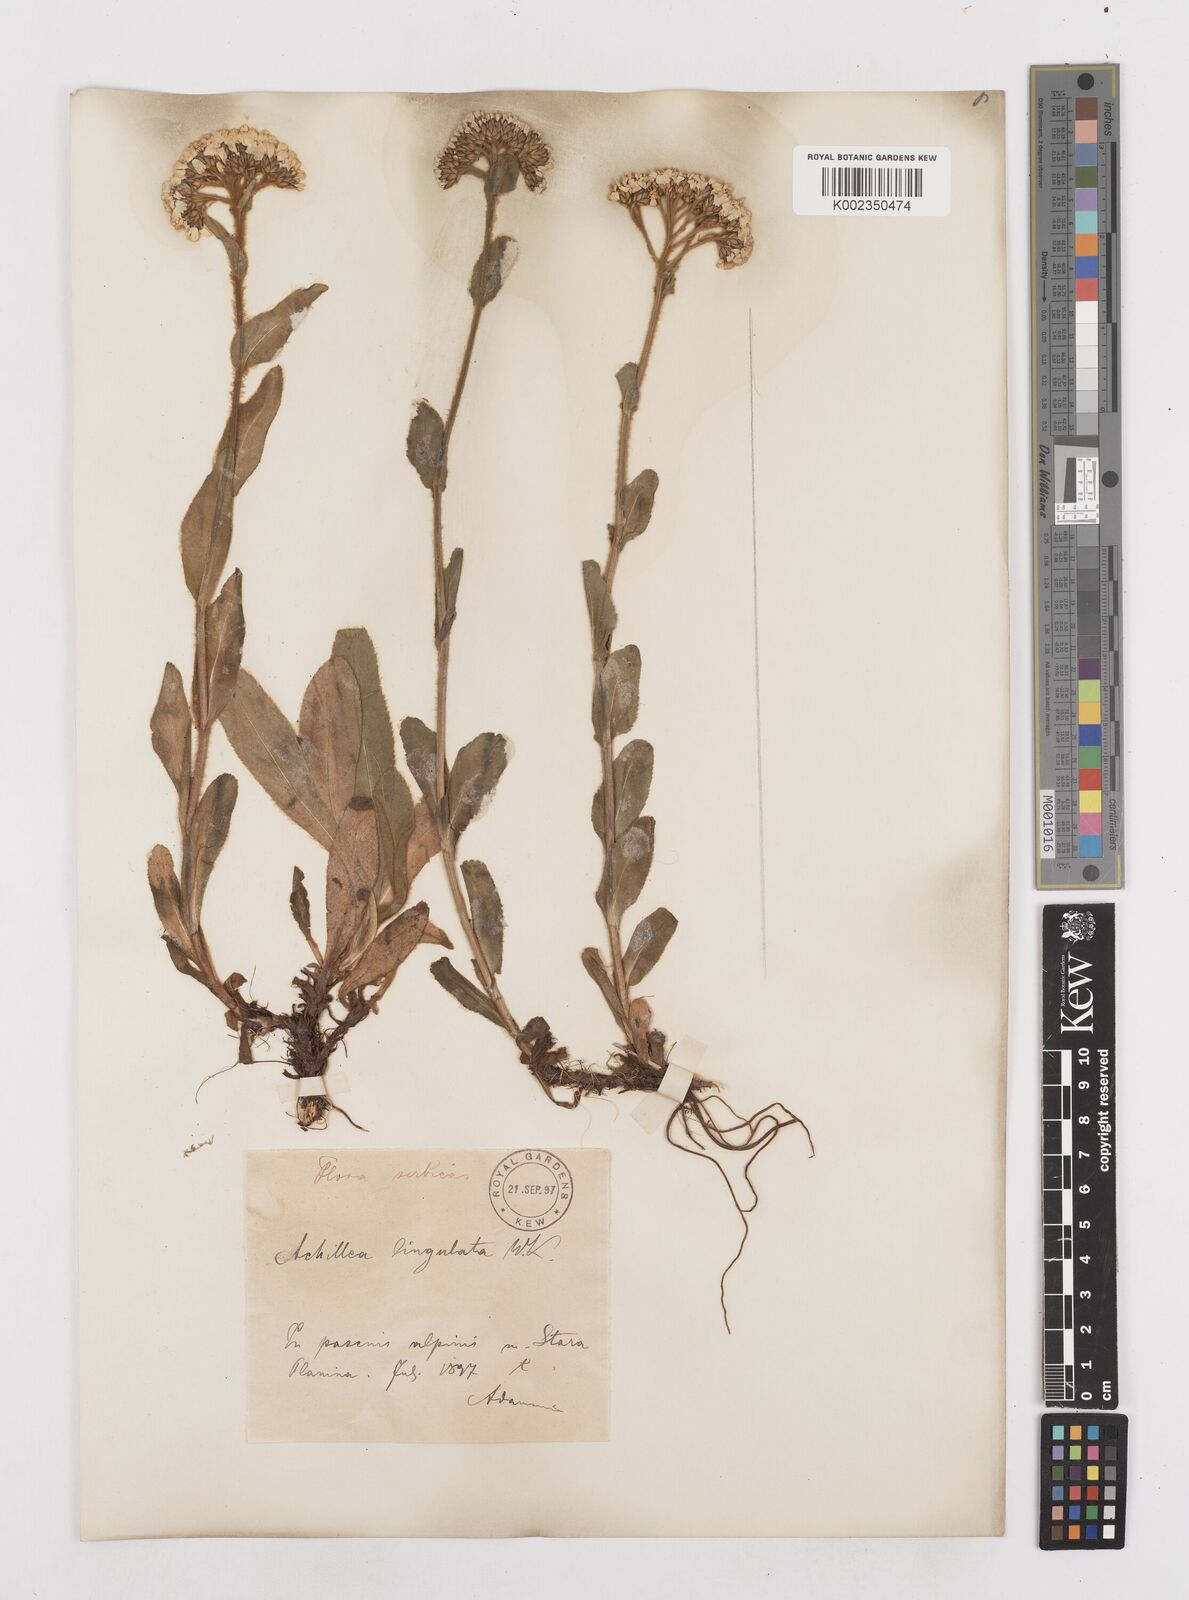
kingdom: Plantae
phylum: Tracheophyta
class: Magnoliopsida
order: Asterales
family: Asteraceae
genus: Achillea
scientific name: Achillea lingulata
